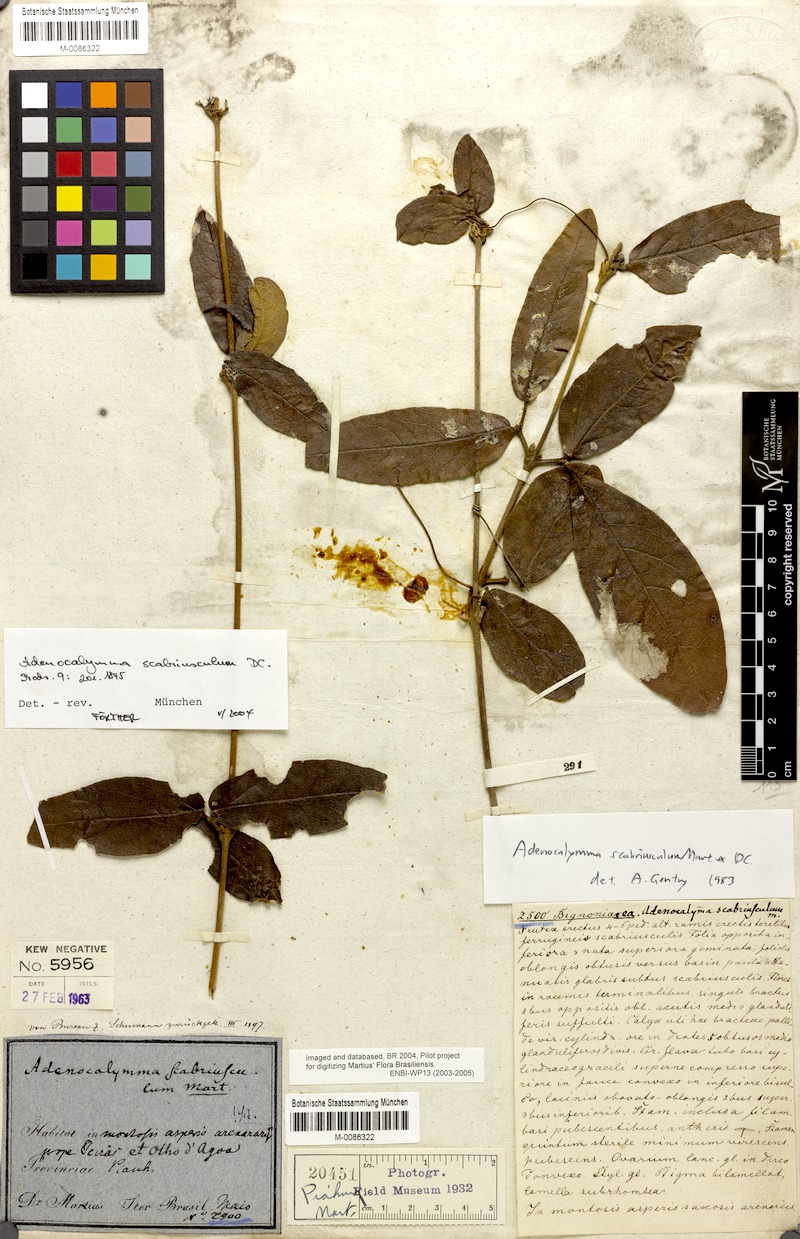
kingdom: Plantae
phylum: Tracheophyta
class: Magnoliopsida
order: Lamiales
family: Bignoniaceae
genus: Adenocalymma
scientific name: Adenocalymma scabriusculum
